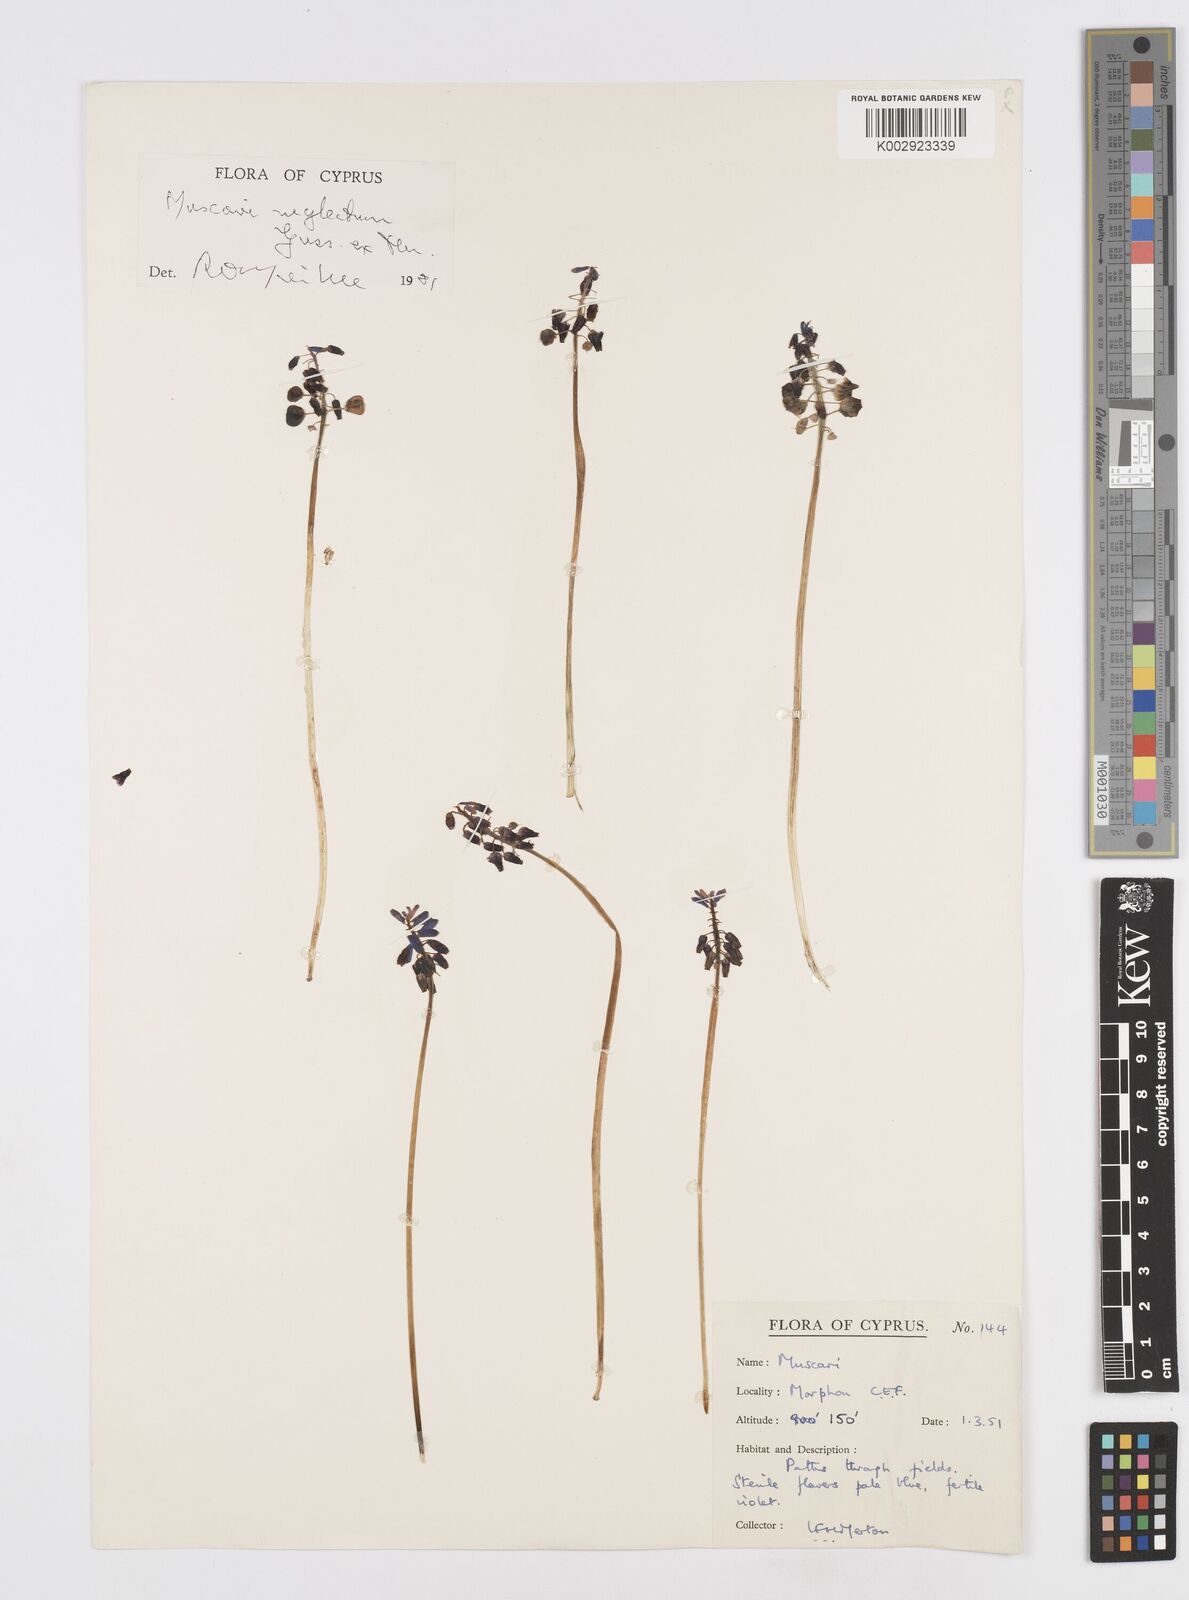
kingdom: Plantae
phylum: Tracheophyta
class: Liliopsida
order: Asparagales
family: Asparagaceae
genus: Muscari
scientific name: Muscari neglectum
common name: Grape-hyacinth
